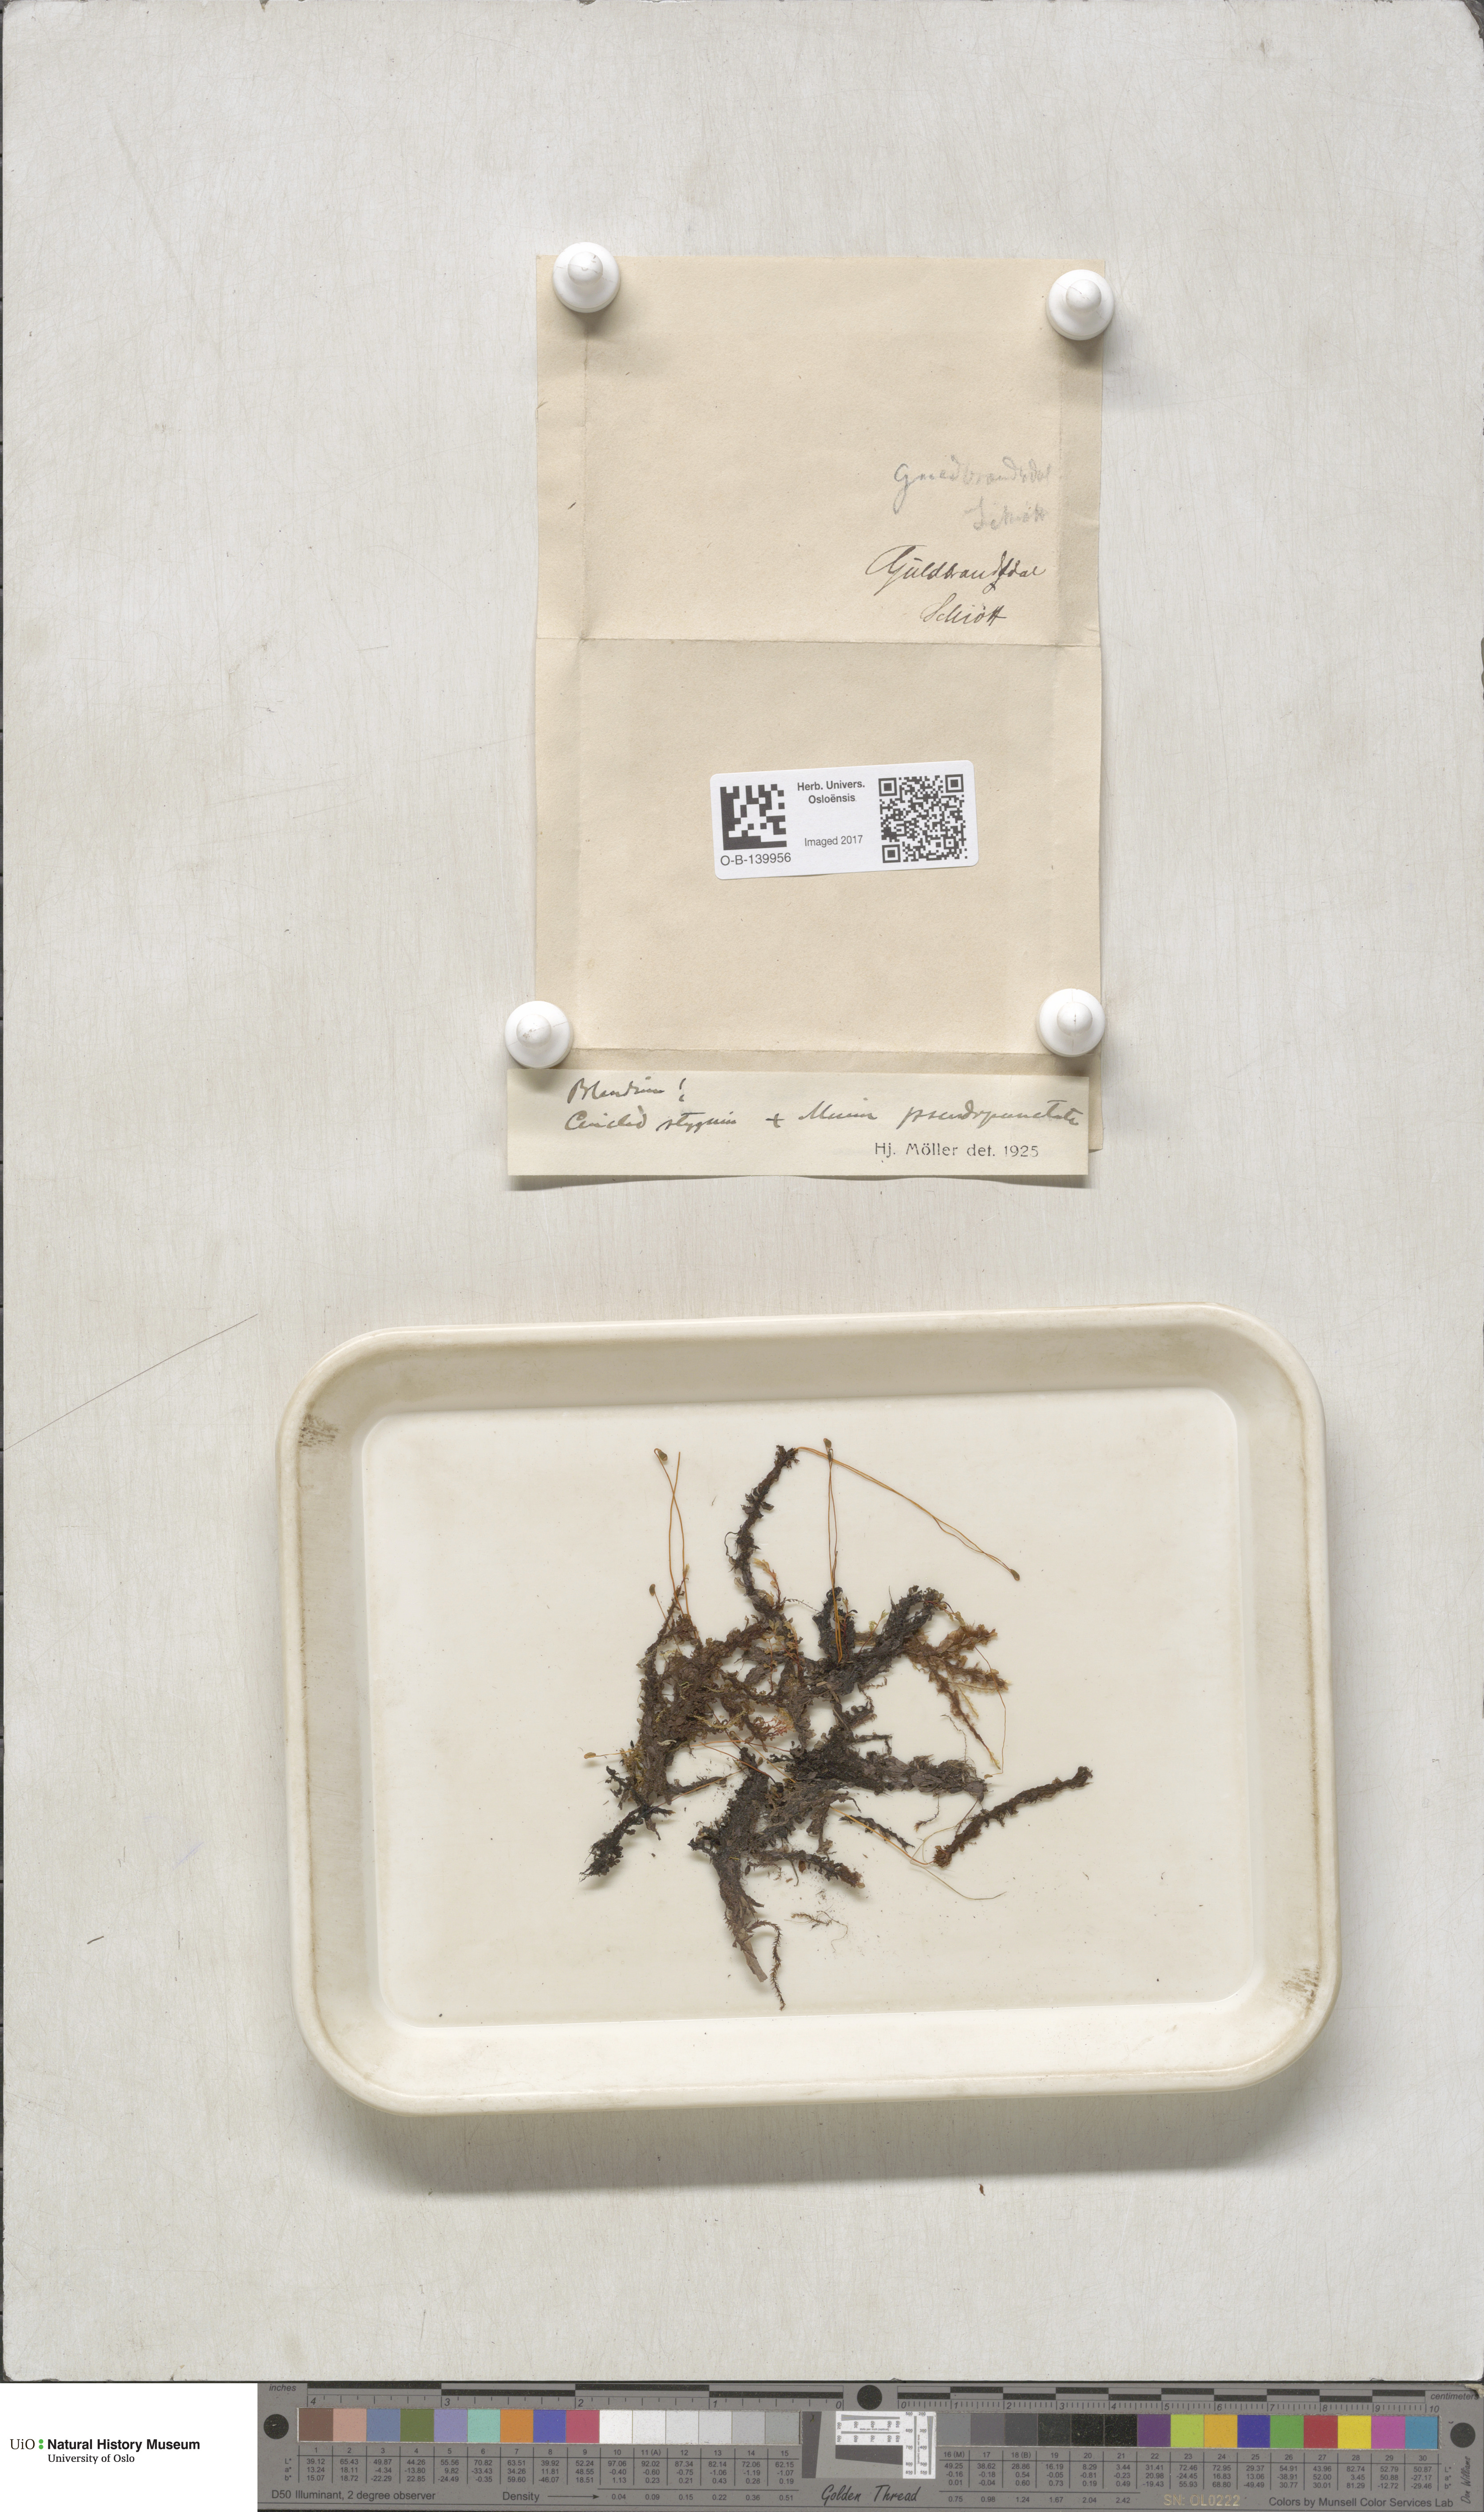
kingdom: Plantae
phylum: Bryophyta
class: Bryopsida
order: Bryales
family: Mniaceae
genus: Rhizomnium
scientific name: Rhizomnium pseudopunctatum
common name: Felted leafy moss
